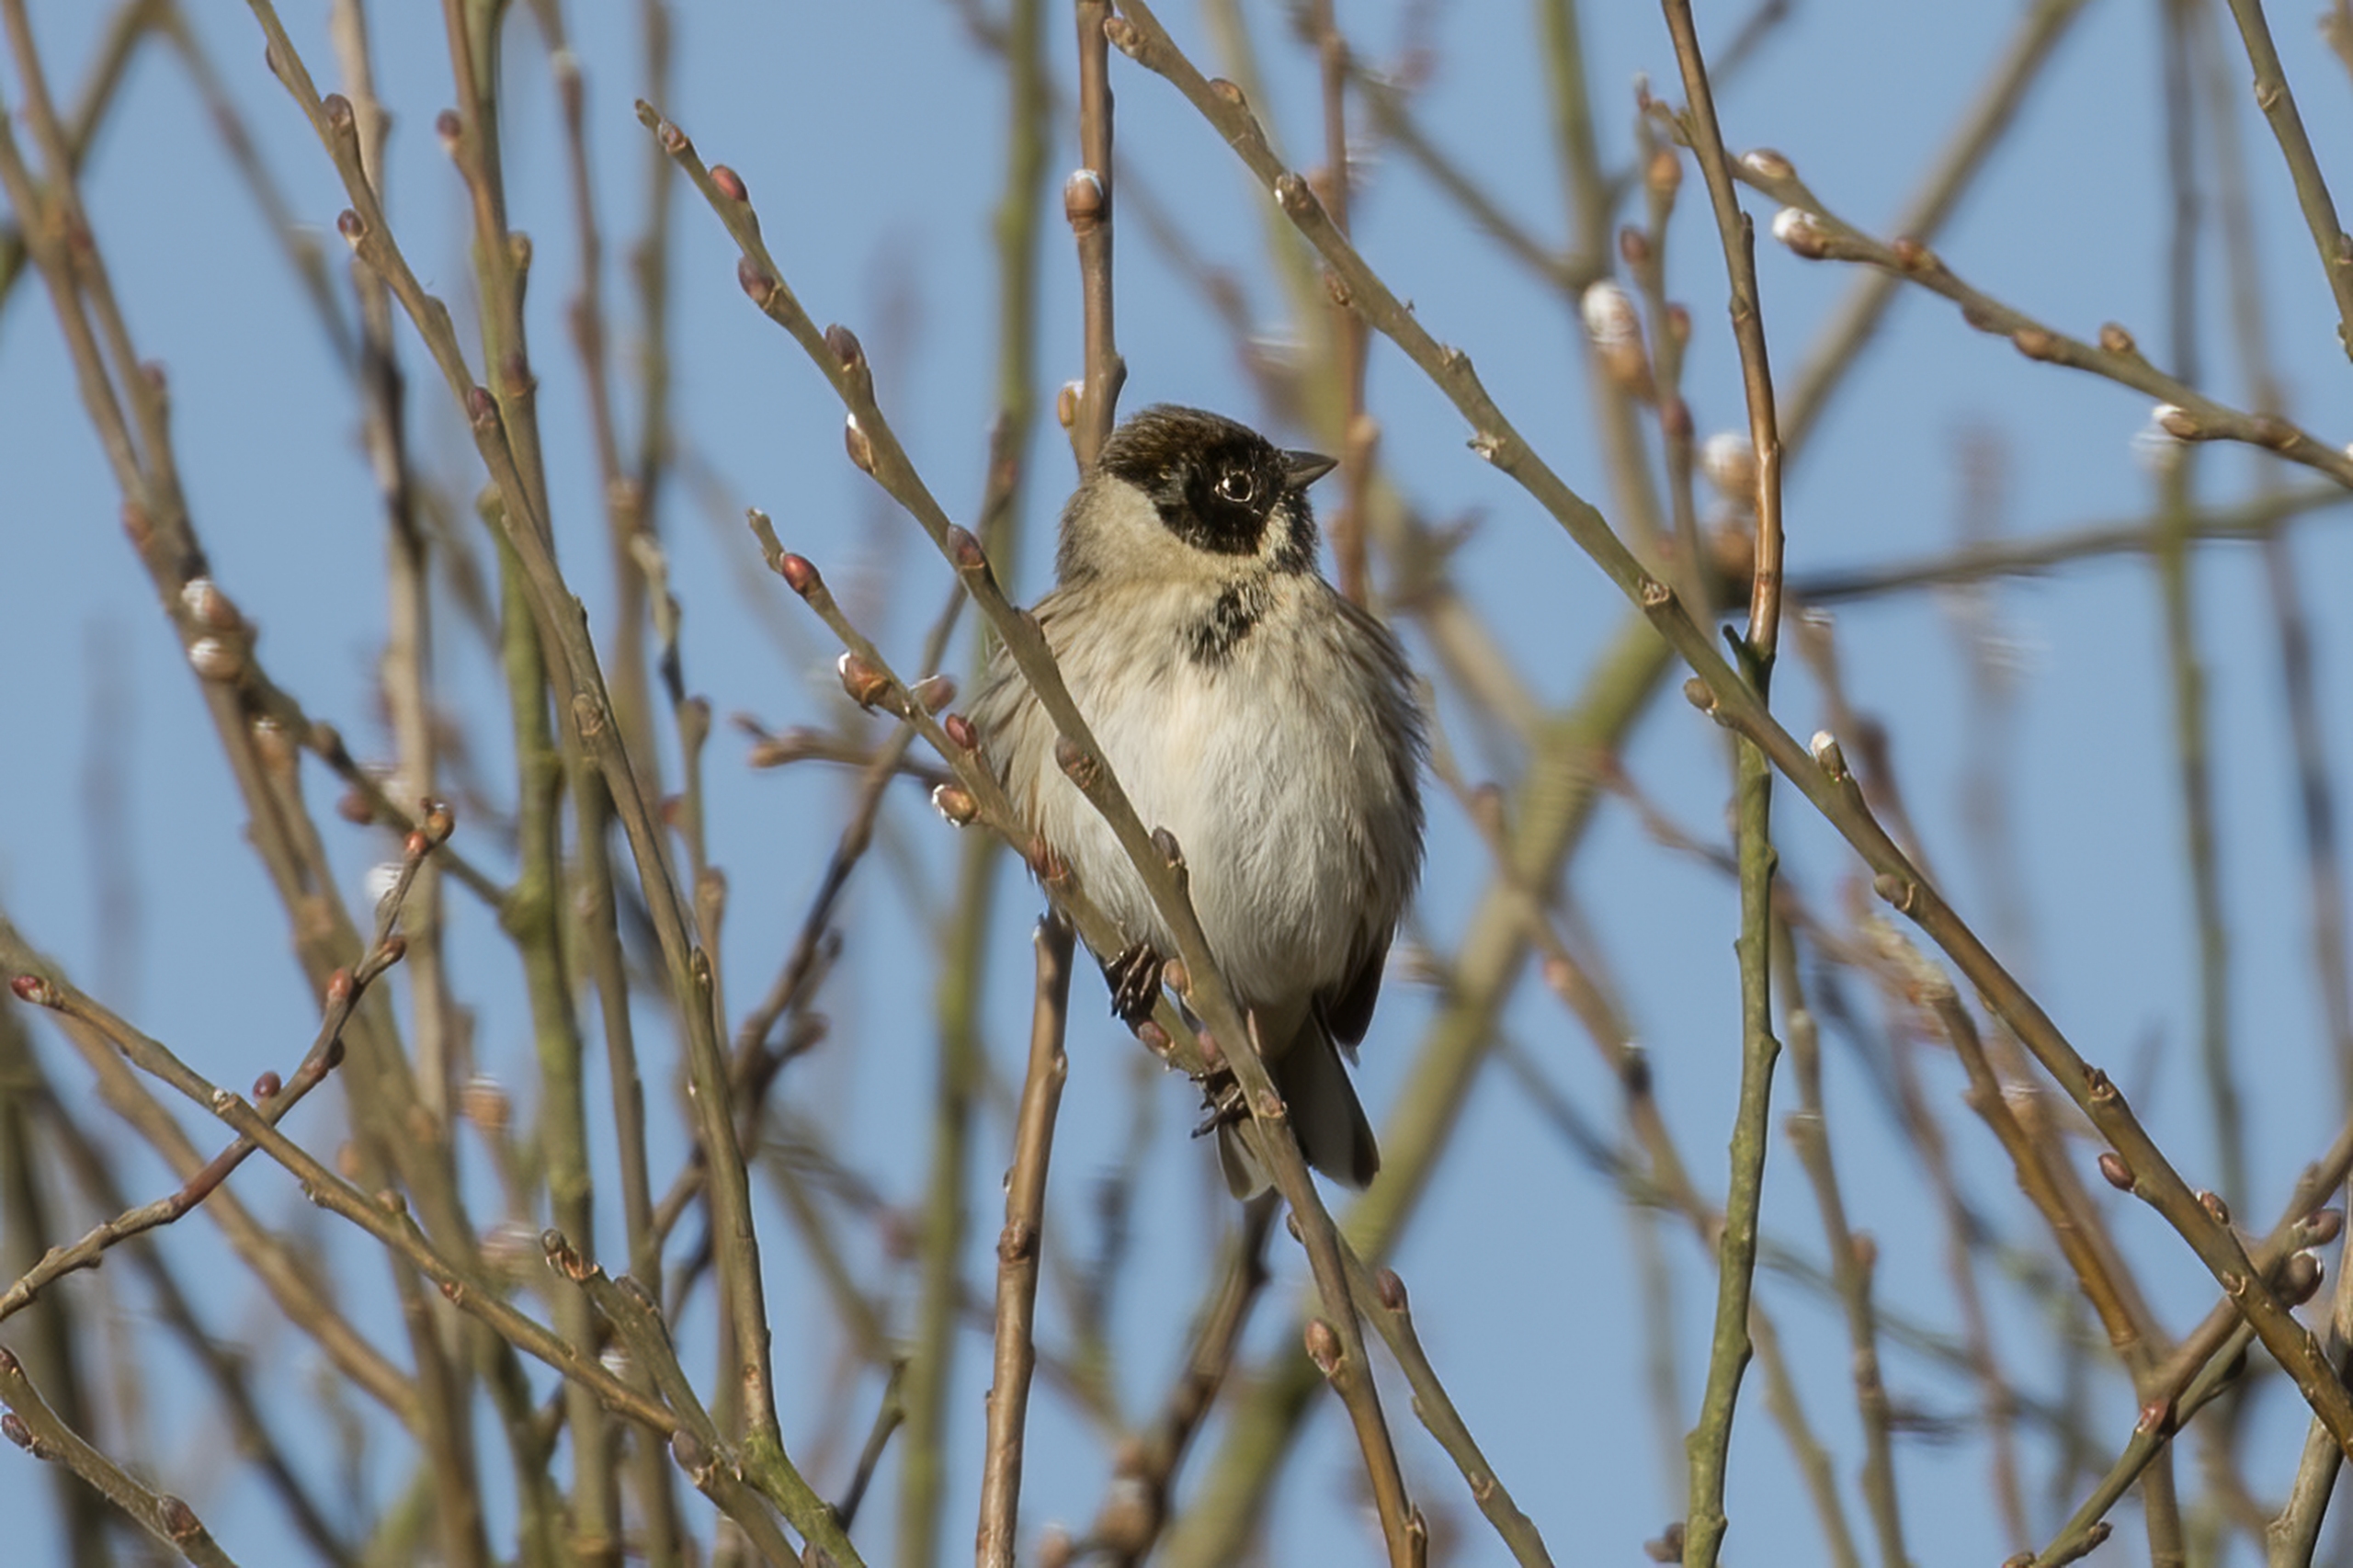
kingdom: Animalia
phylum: Chordata
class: Aves
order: Passeriformes
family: Emberizidae
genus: Emberiza
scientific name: Emberiza schoeniclus
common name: Rørspurv
